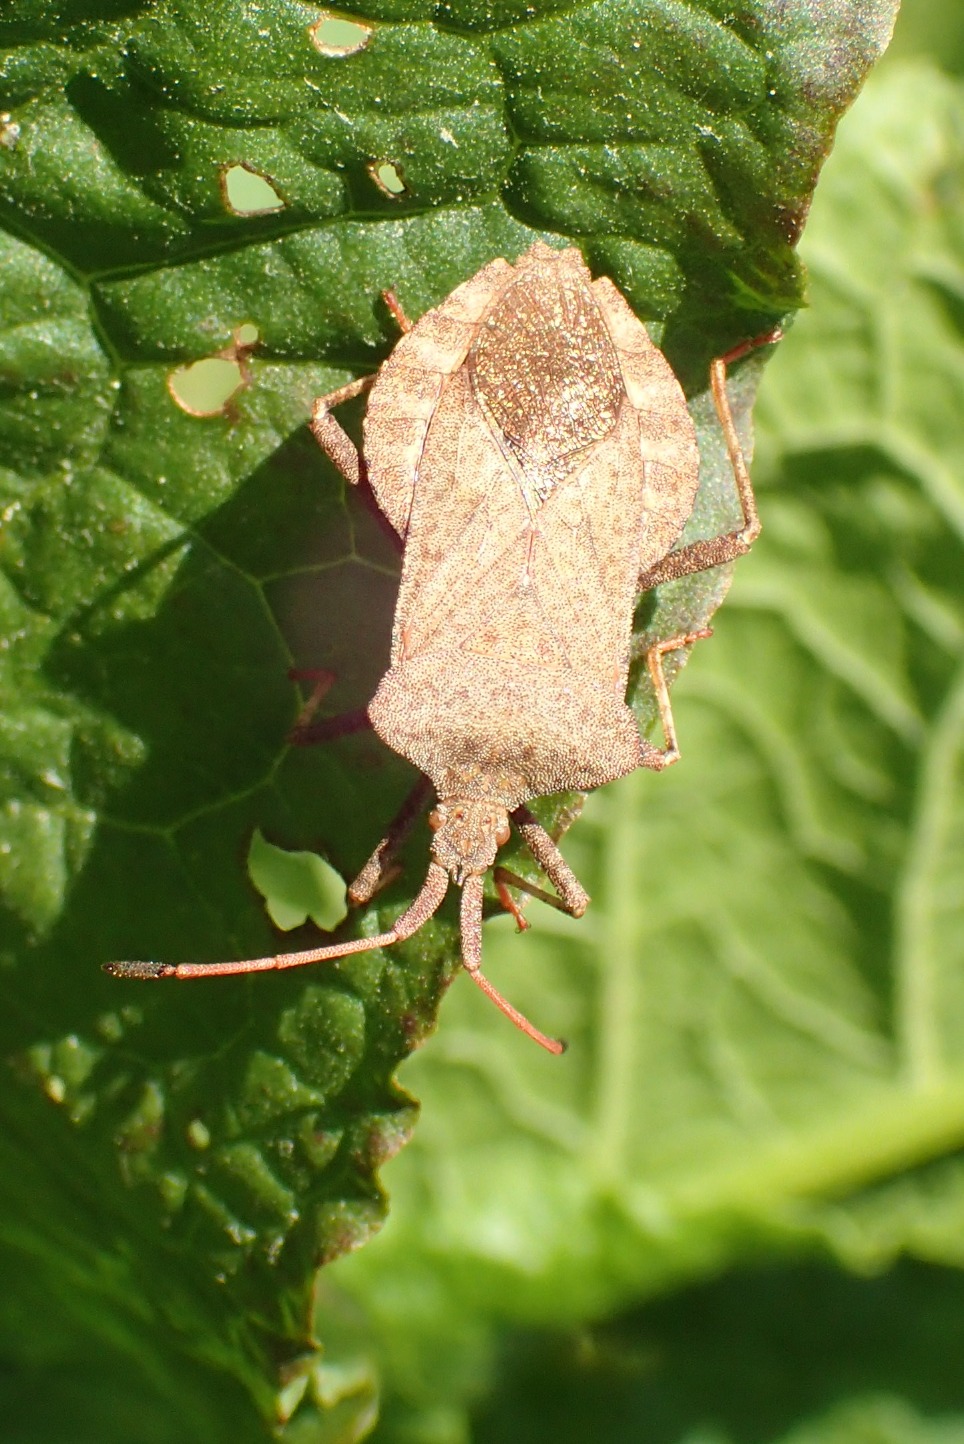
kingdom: Animalia
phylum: Arthropoda
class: Insecta
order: Hemiptera
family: Coreidae
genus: Coreus
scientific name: Coreus marginatus
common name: Skræppetæge
